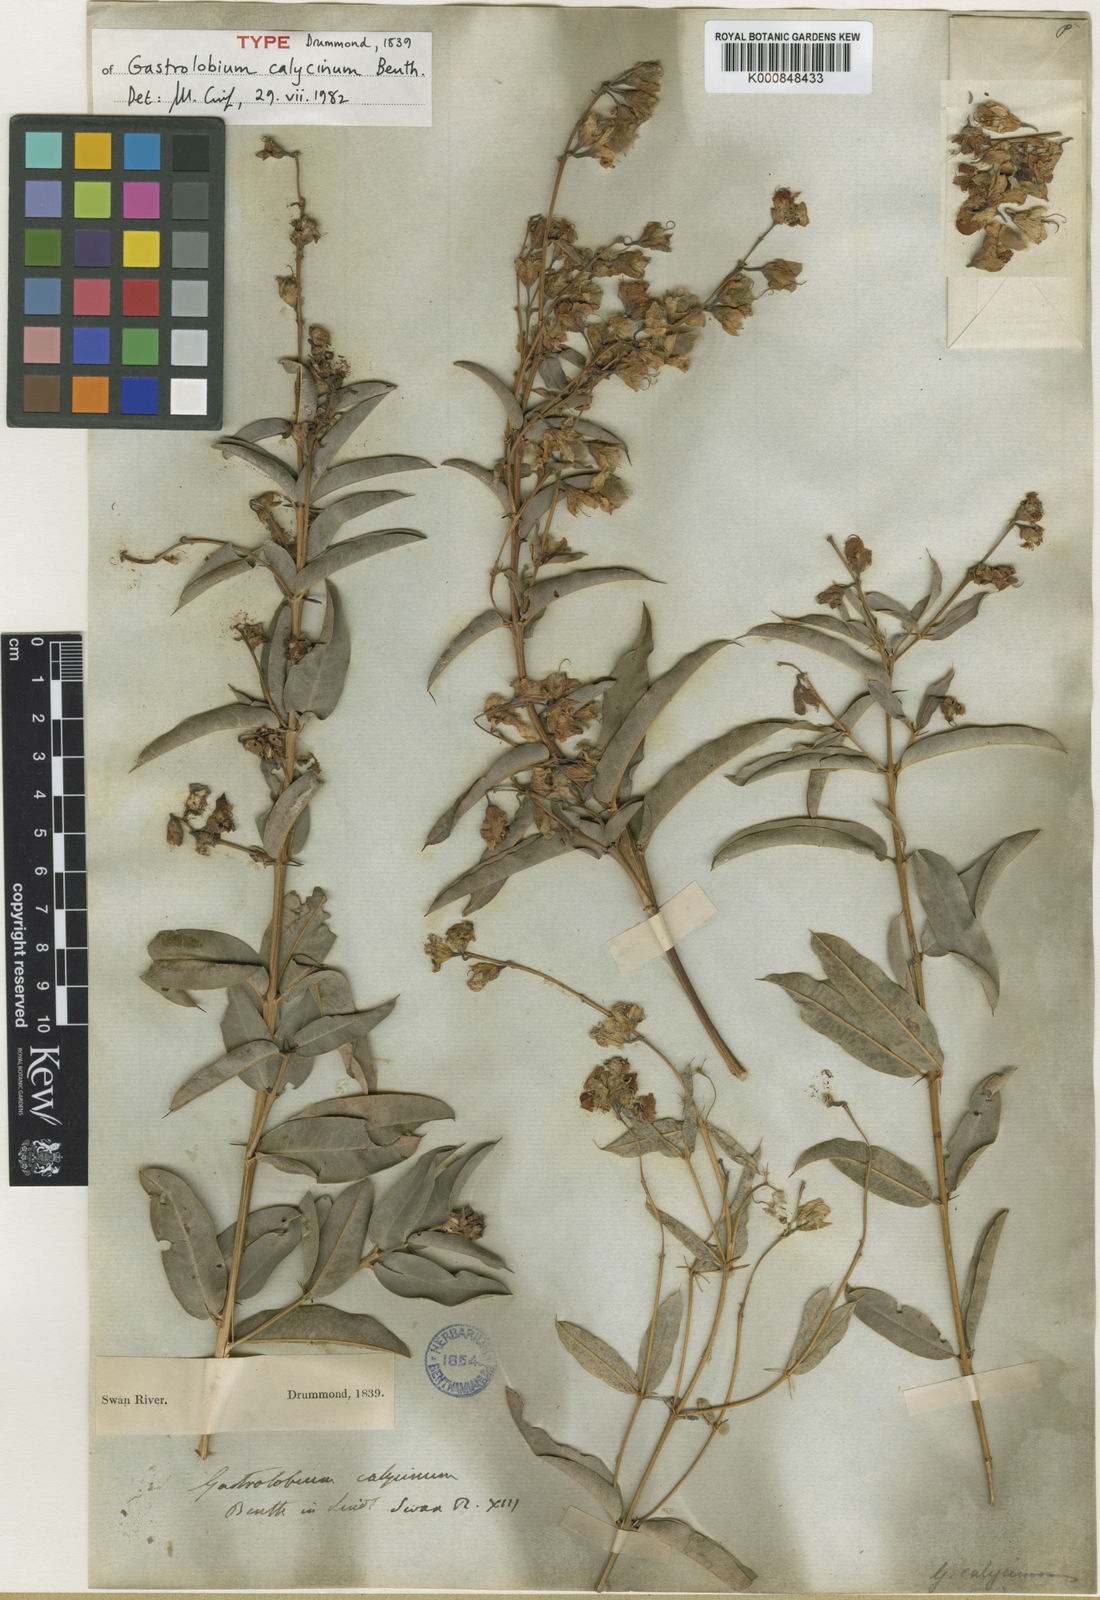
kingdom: Plantae
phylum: Tracheophyta
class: Magnoliopsida
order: Fabales
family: Fabaceae
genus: Gastrolobium
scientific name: Gastrolobium calycinum
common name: York road poison
